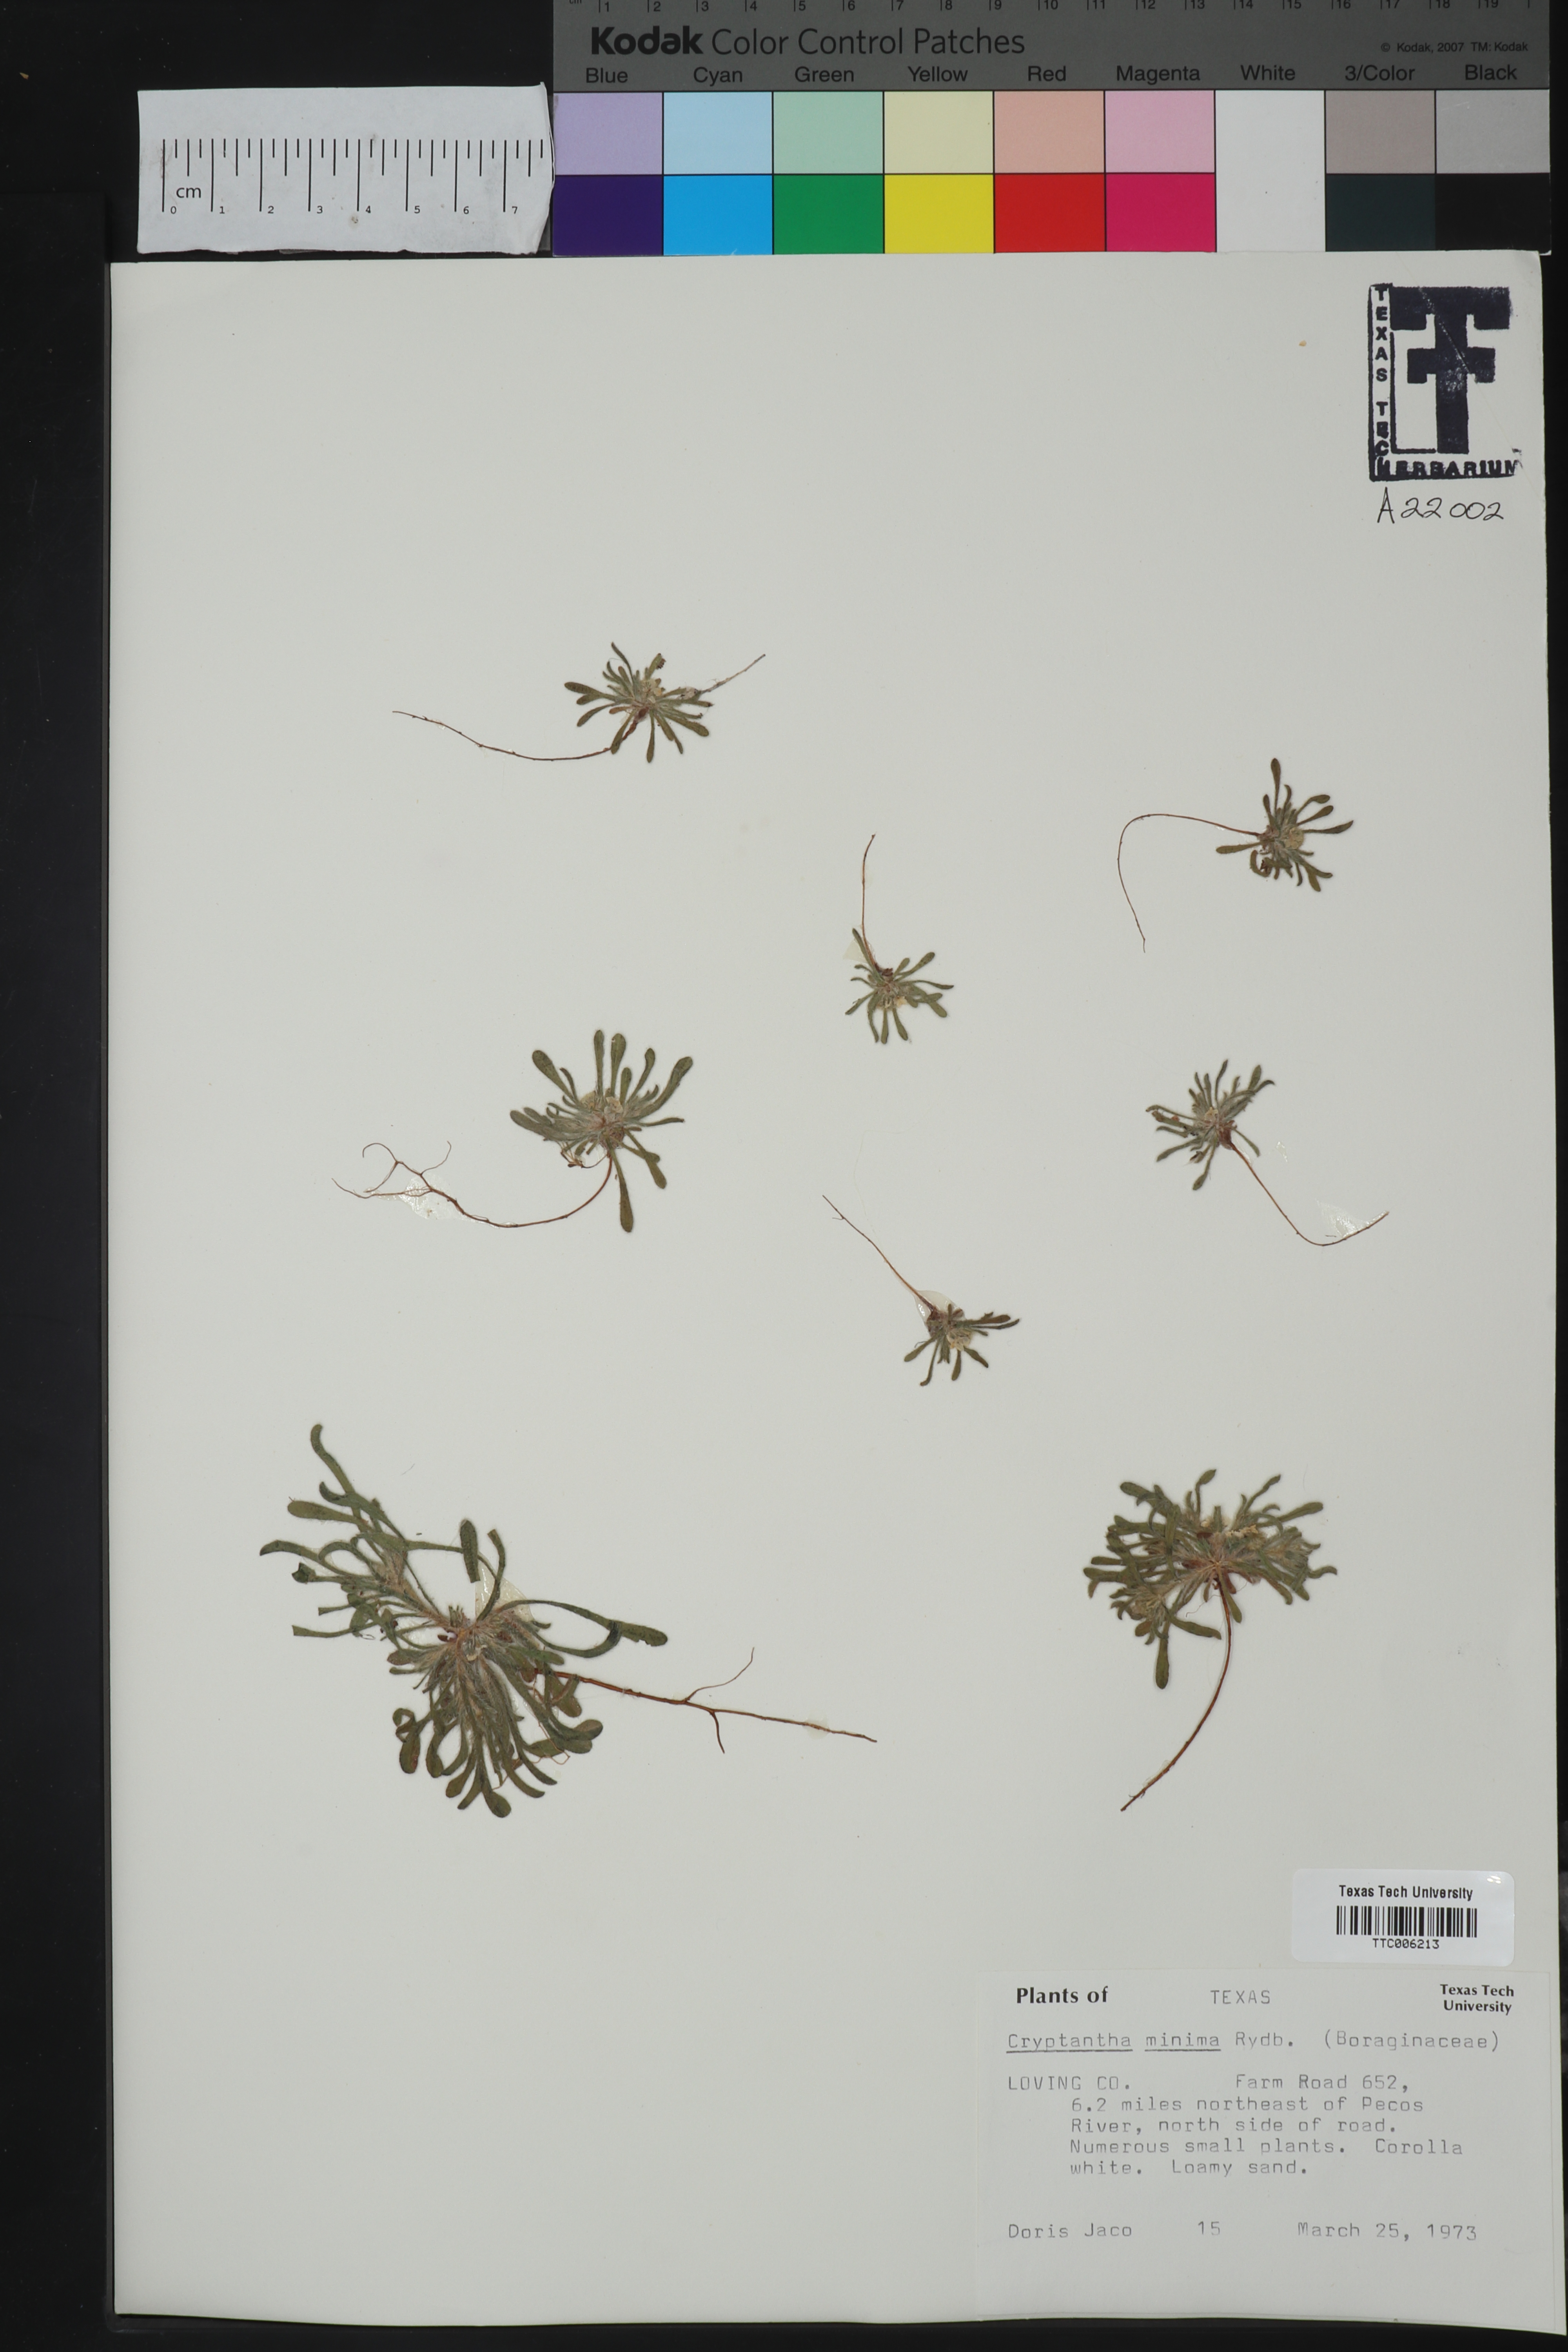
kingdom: Plantae
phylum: Tracheophyta
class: Magnoliopsida
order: Boraginales
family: Boraginaceae
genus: Cryptantha
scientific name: Cryptantha minima
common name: Little cat's-eye
